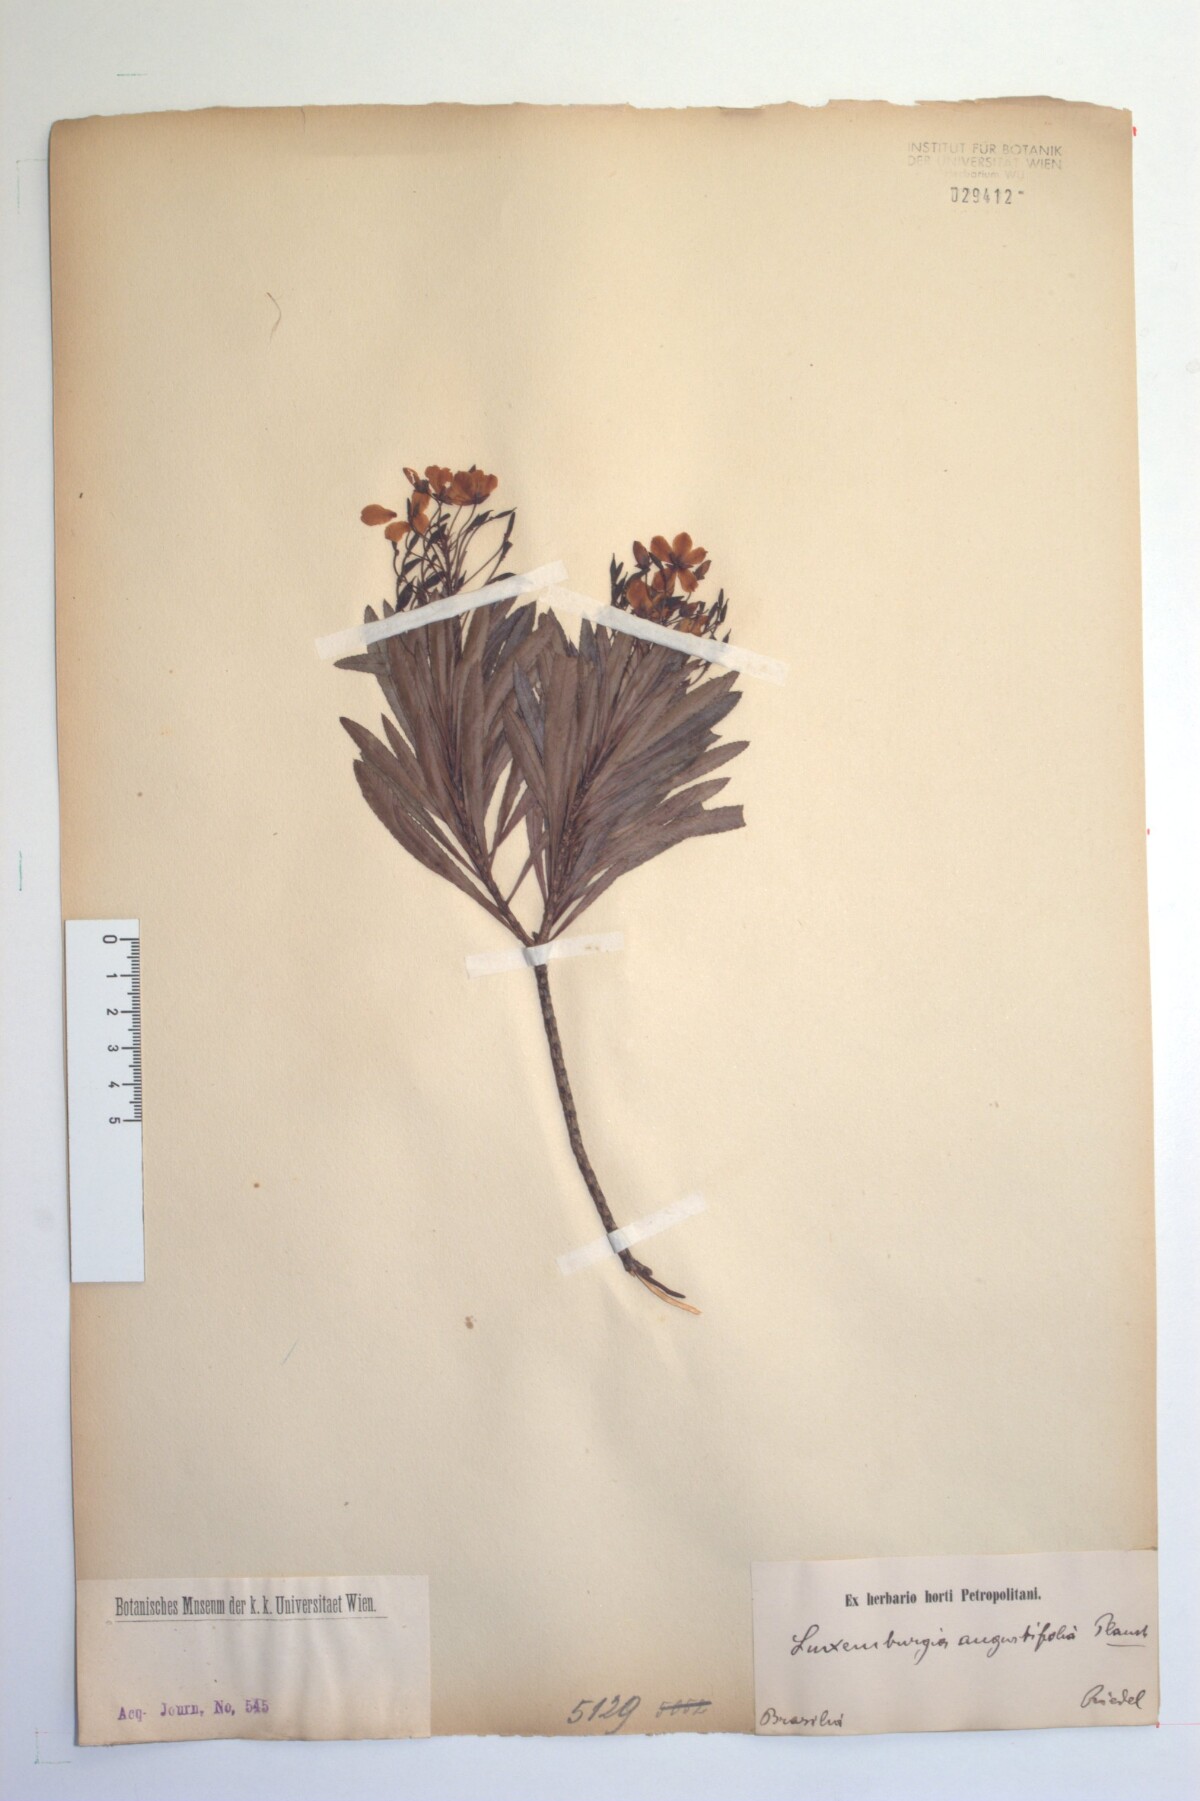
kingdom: Plantae
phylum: Tracheophyta
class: Magnoliopsida
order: Malpighiales
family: Ochnaceae
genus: Luxemburgia
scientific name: Luxemburgia angustifolia
